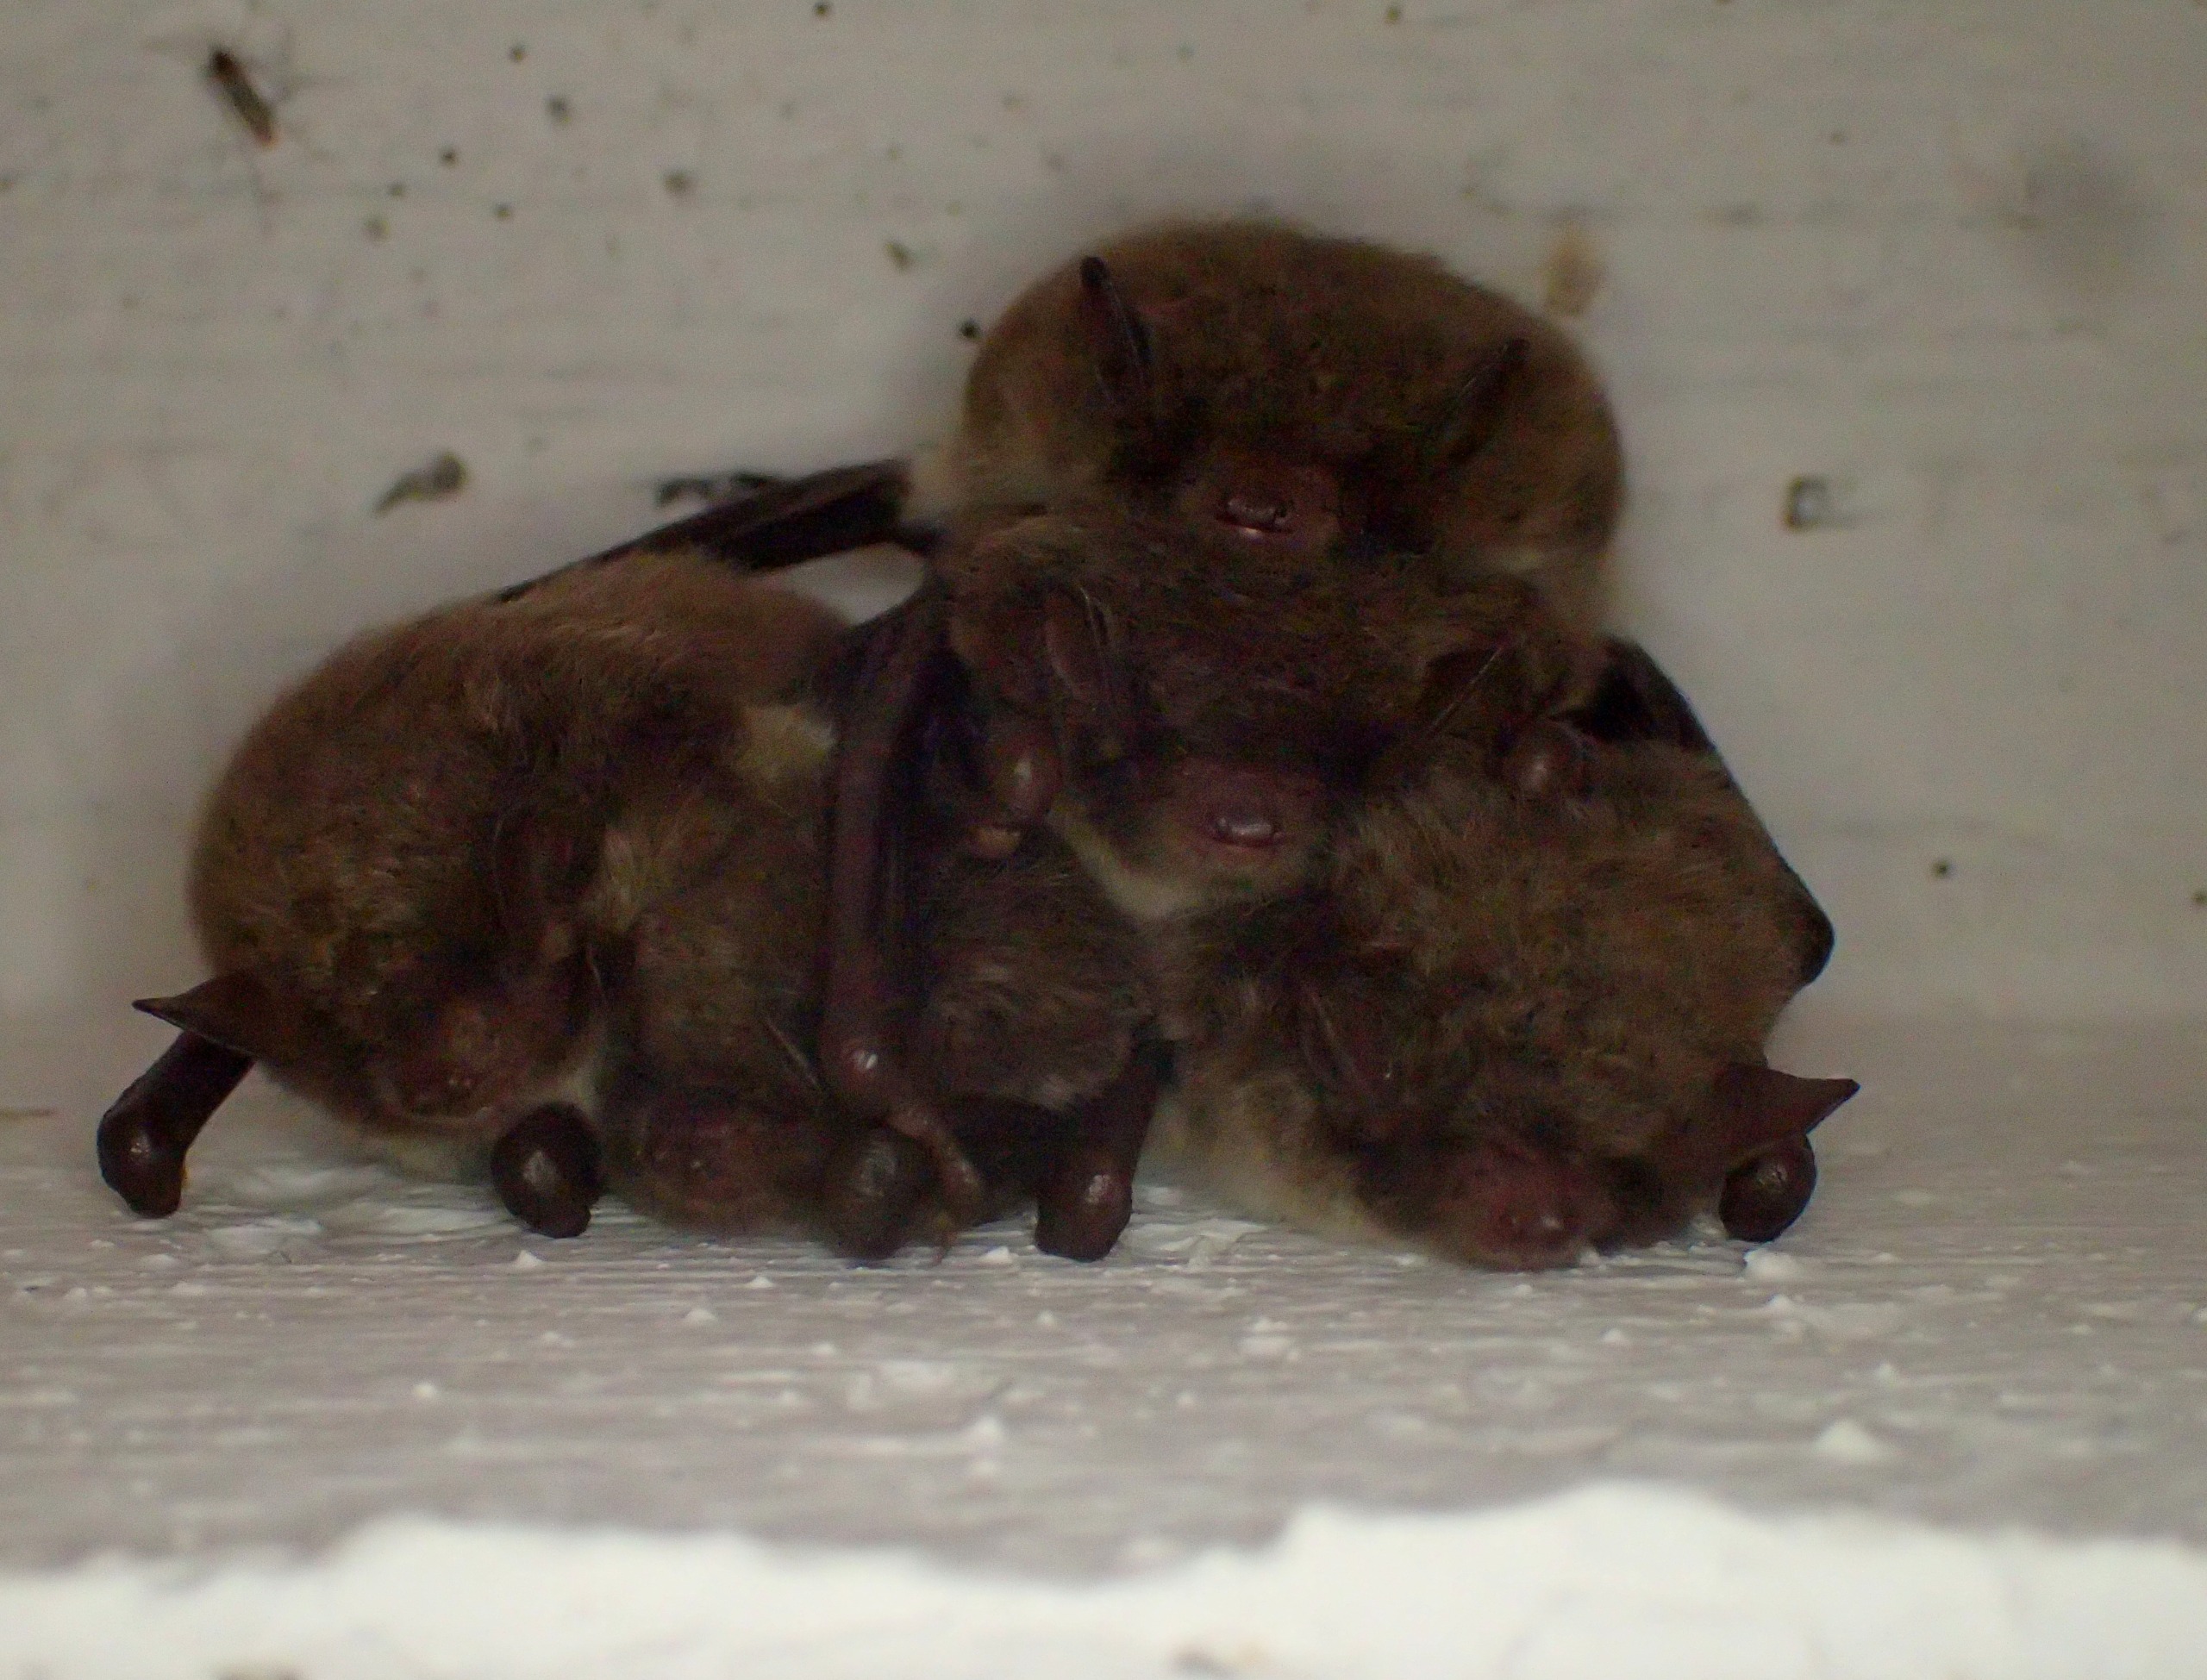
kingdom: Animalia
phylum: Chordata
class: Mammalia
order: Chiroptera
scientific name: Chiroptera
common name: Flagermus
